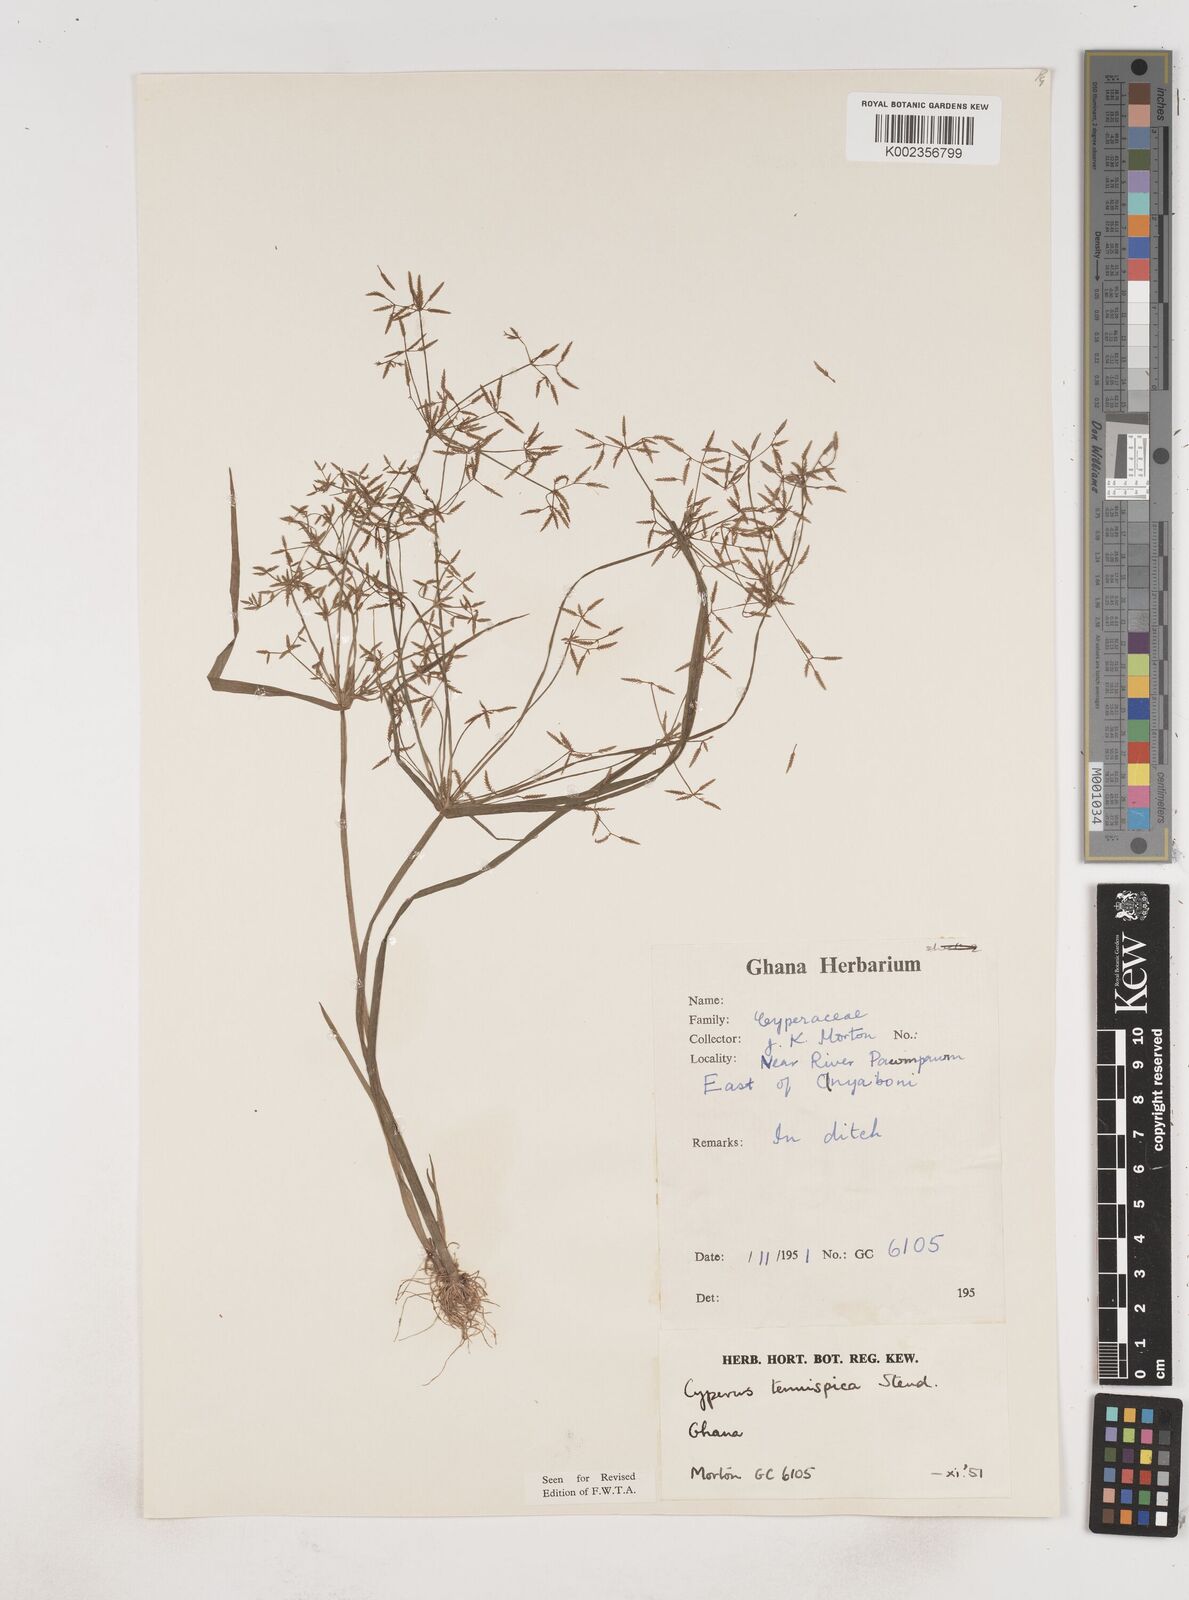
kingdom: Plantae
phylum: Tracheophyta
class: Liliopsida
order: Poales
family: Cyperaceae
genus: Cyperus
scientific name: Cyperus tenuispica
